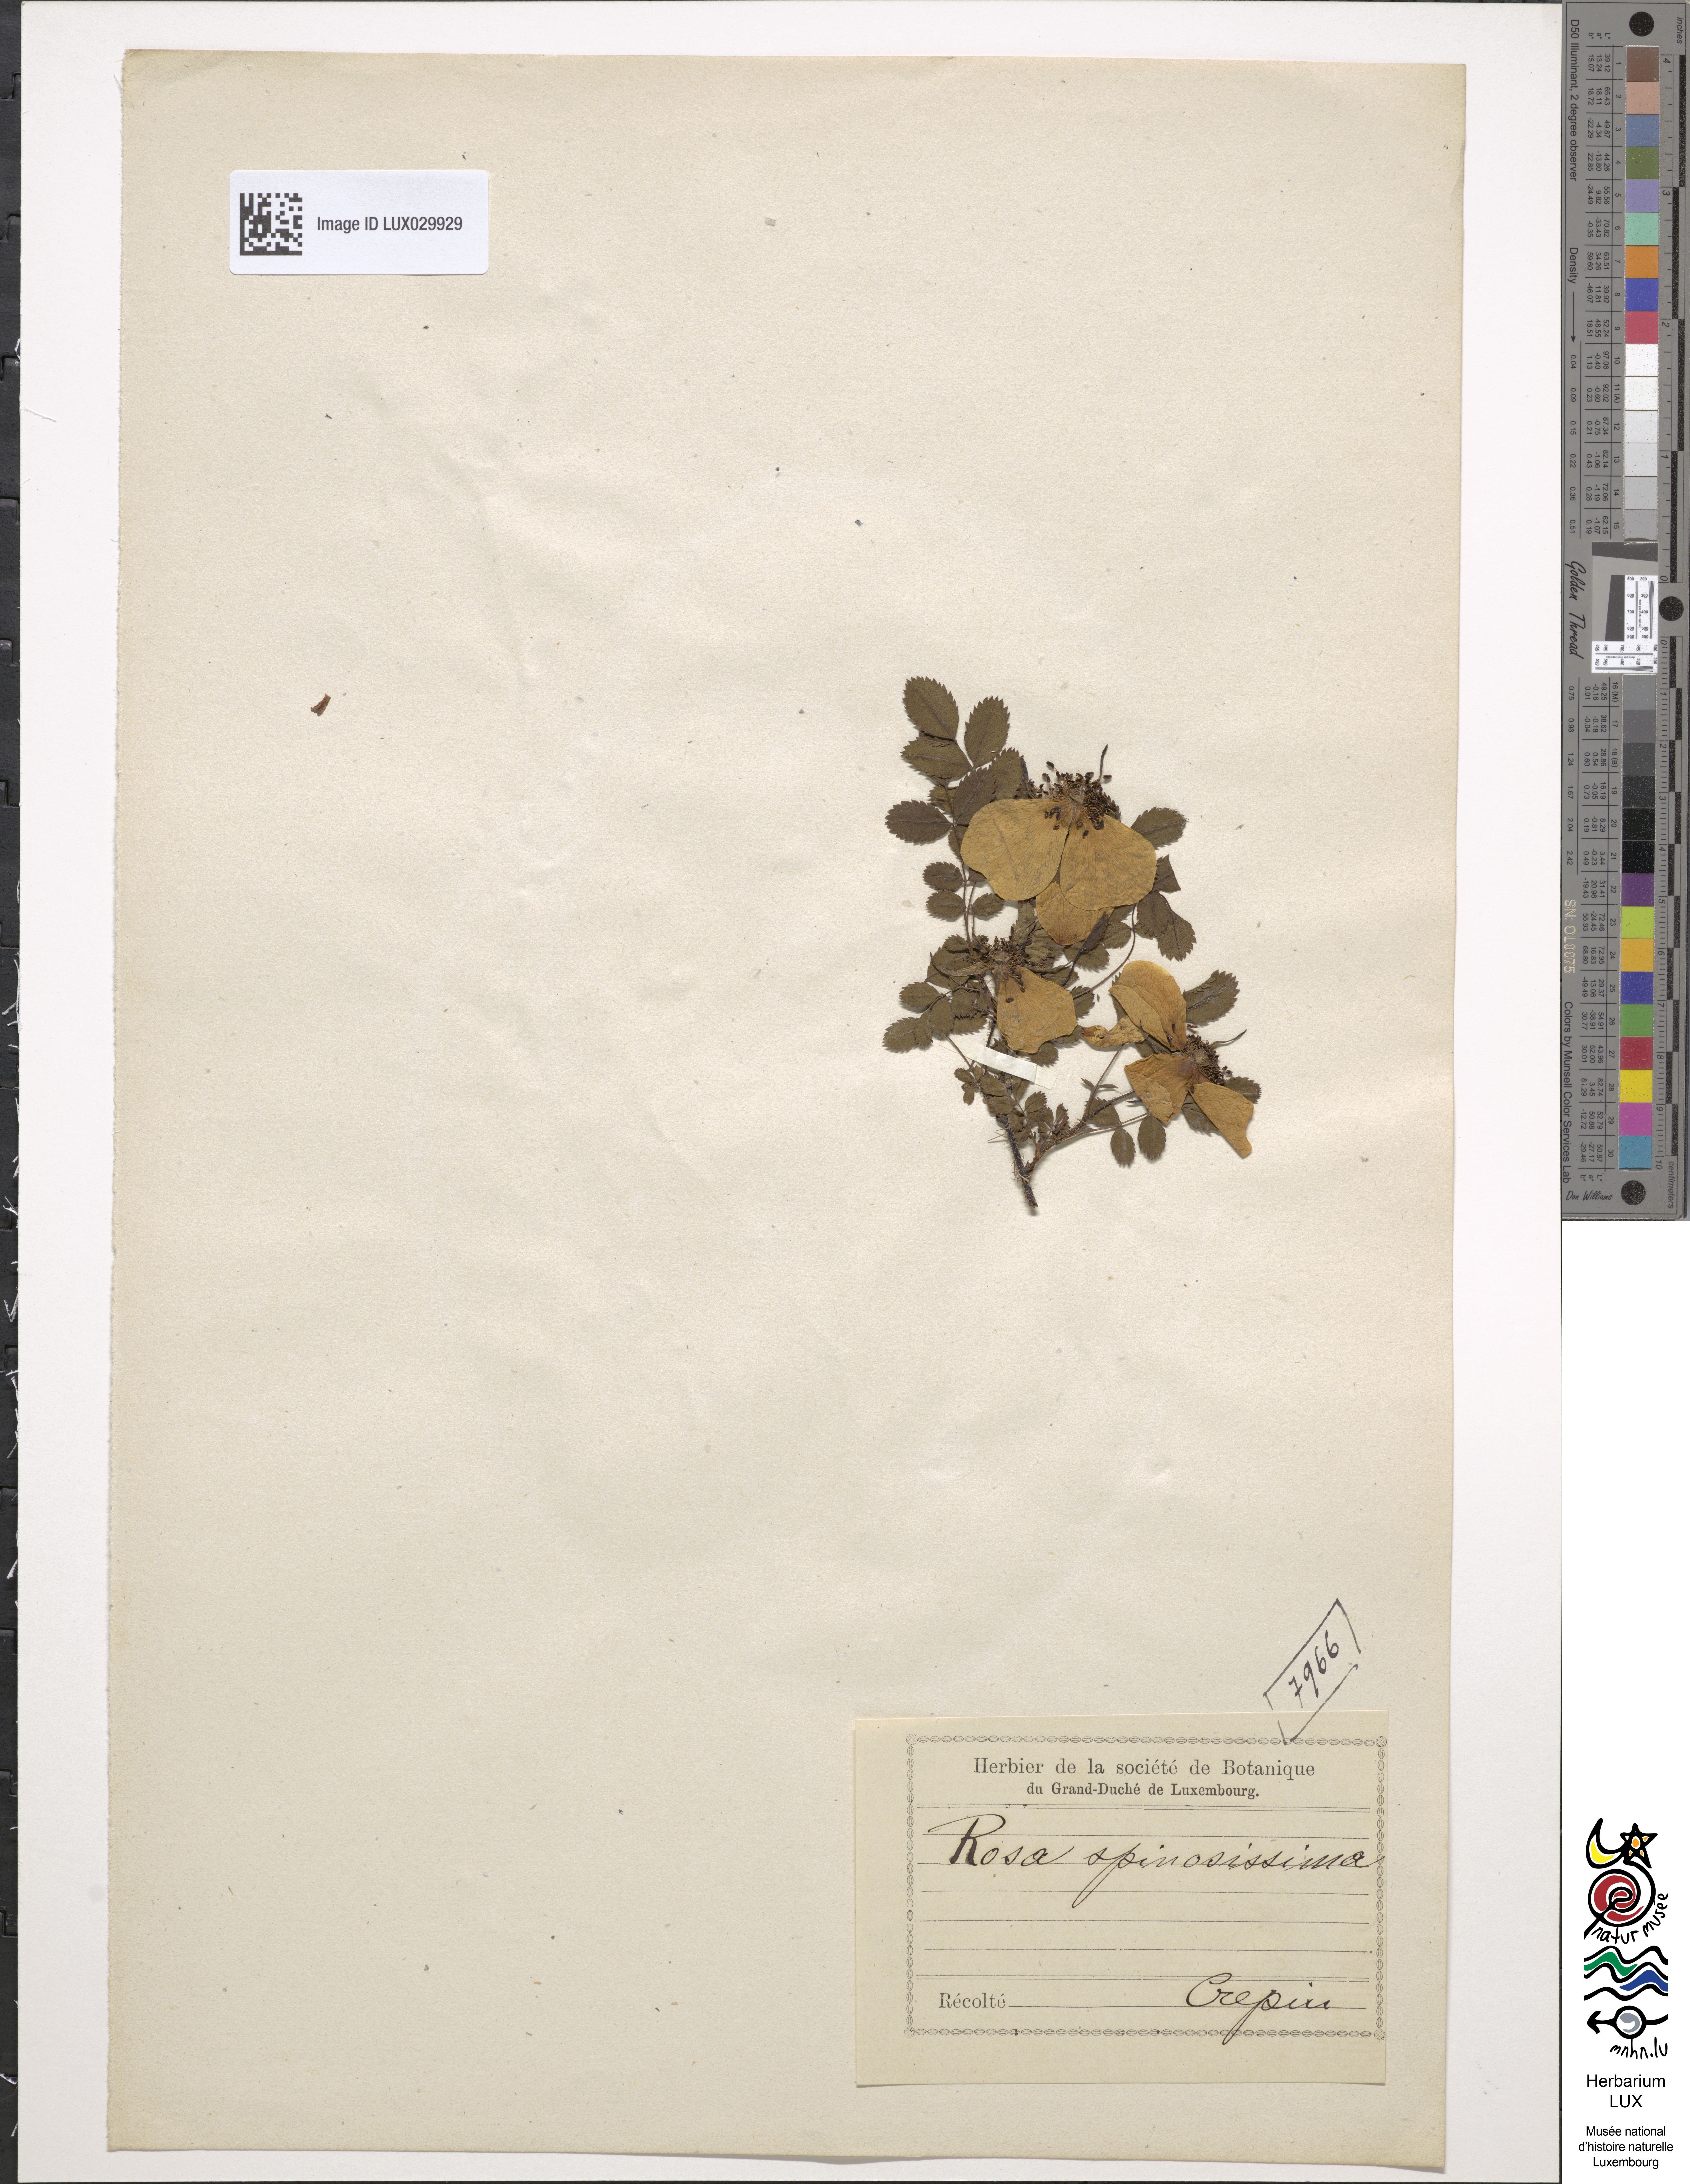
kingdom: Plantae
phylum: Tracheophyta
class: Magnoliopsida
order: Rosales
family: Rosaceae
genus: Rosa
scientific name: Rosa
